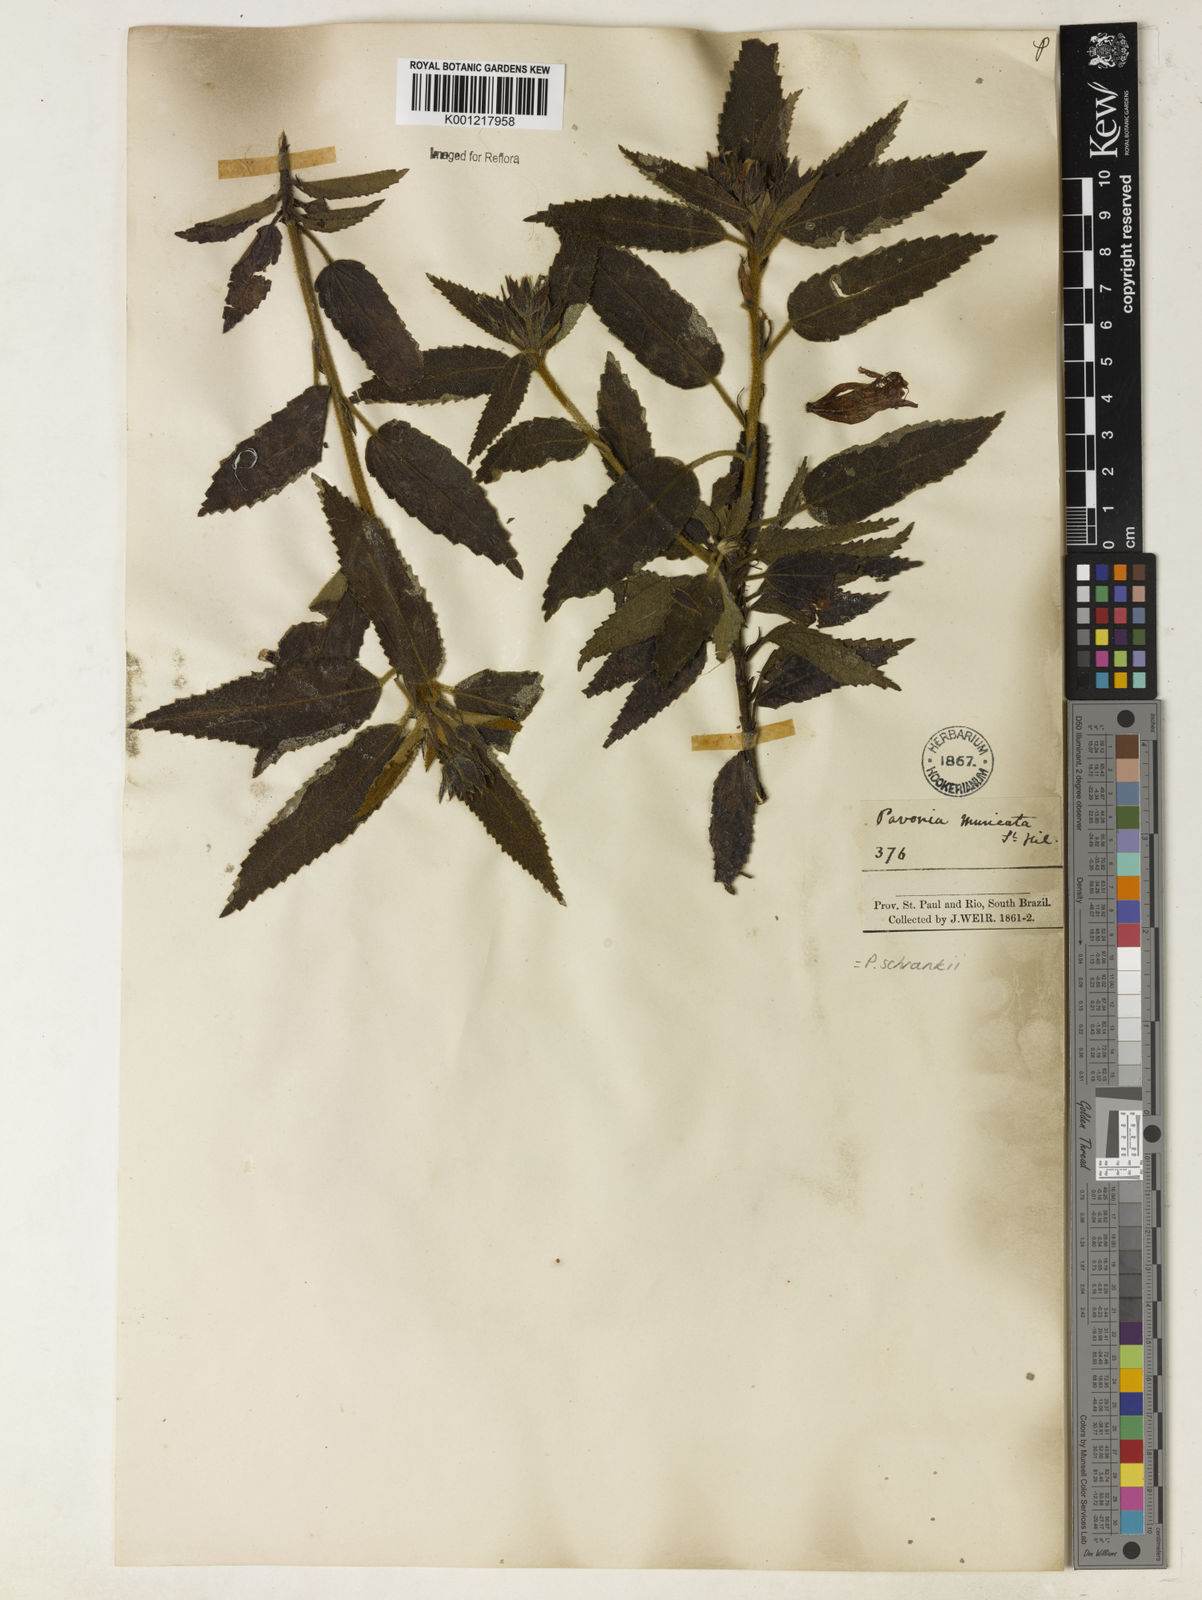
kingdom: Plantae
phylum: Tracheophyta
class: Magnoliopsida
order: Malvales
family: Malvaceae
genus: Pavonia
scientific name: Pavonia schrankii
